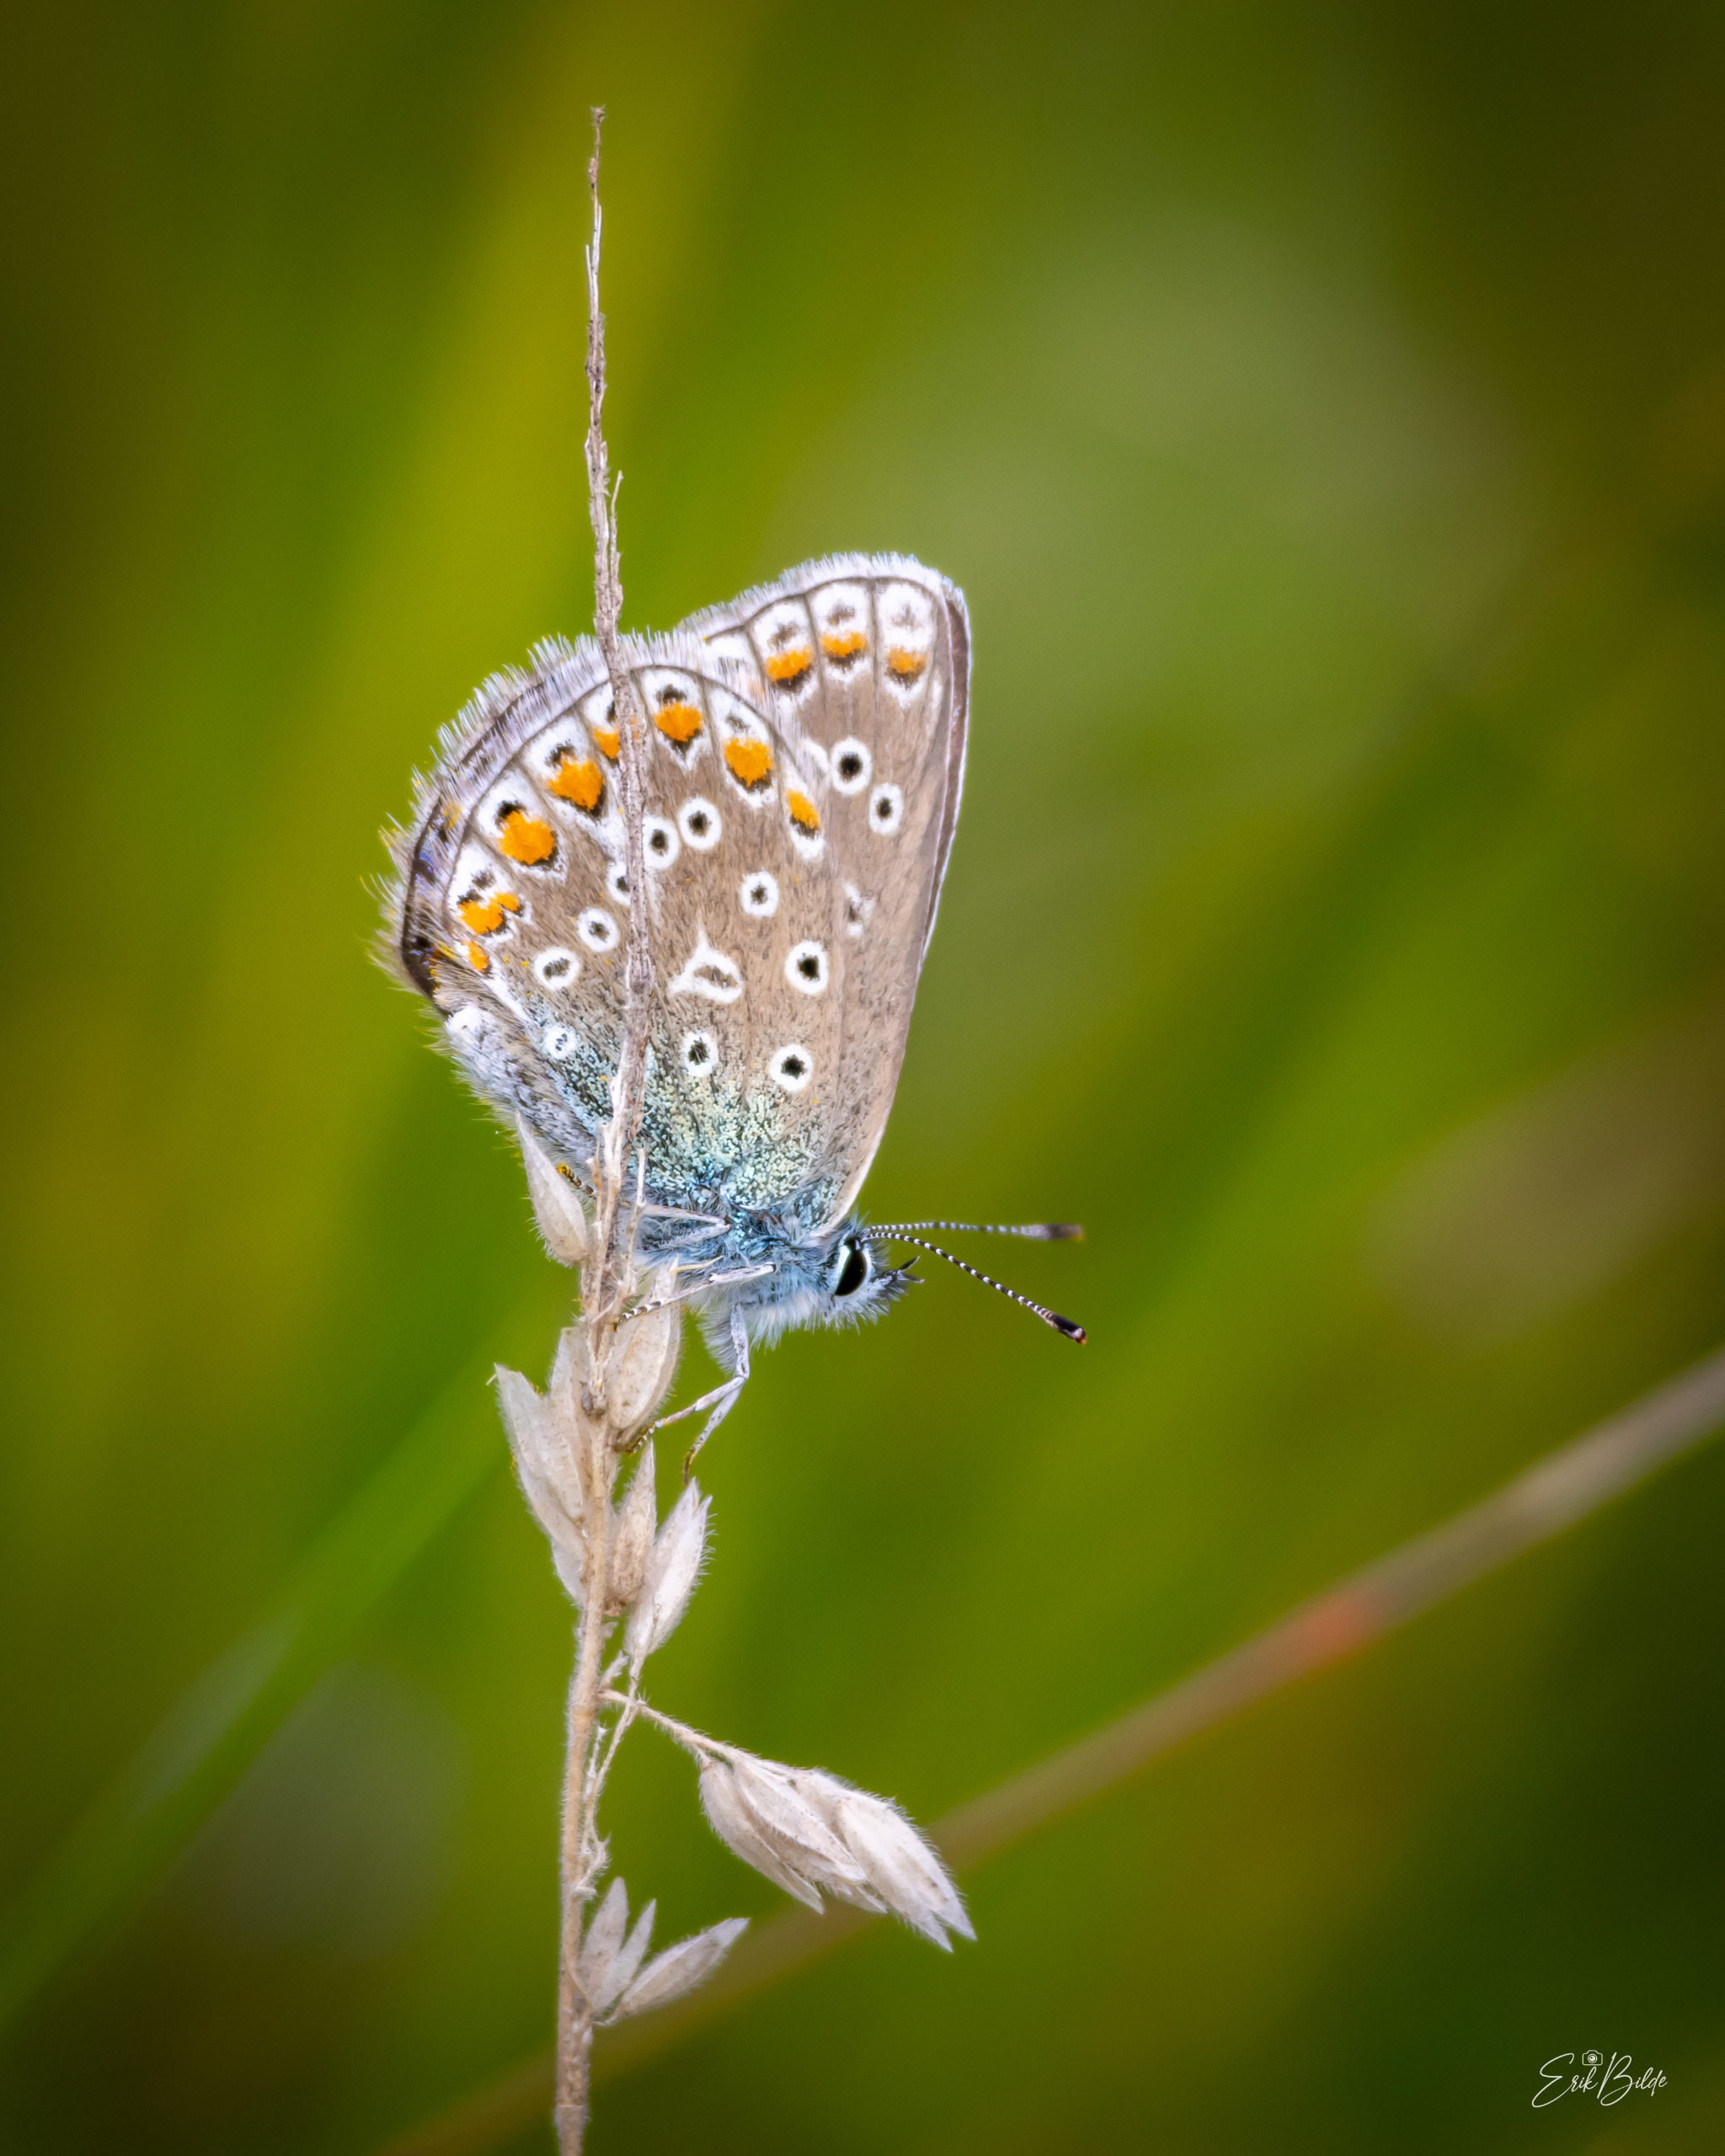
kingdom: Animalia
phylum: Arthropoda
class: Insecta
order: Lepidoptera
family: Lycaenidae
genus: Polyommatus
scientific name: Polyommatus icarus
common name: Almindelig blåfugl
